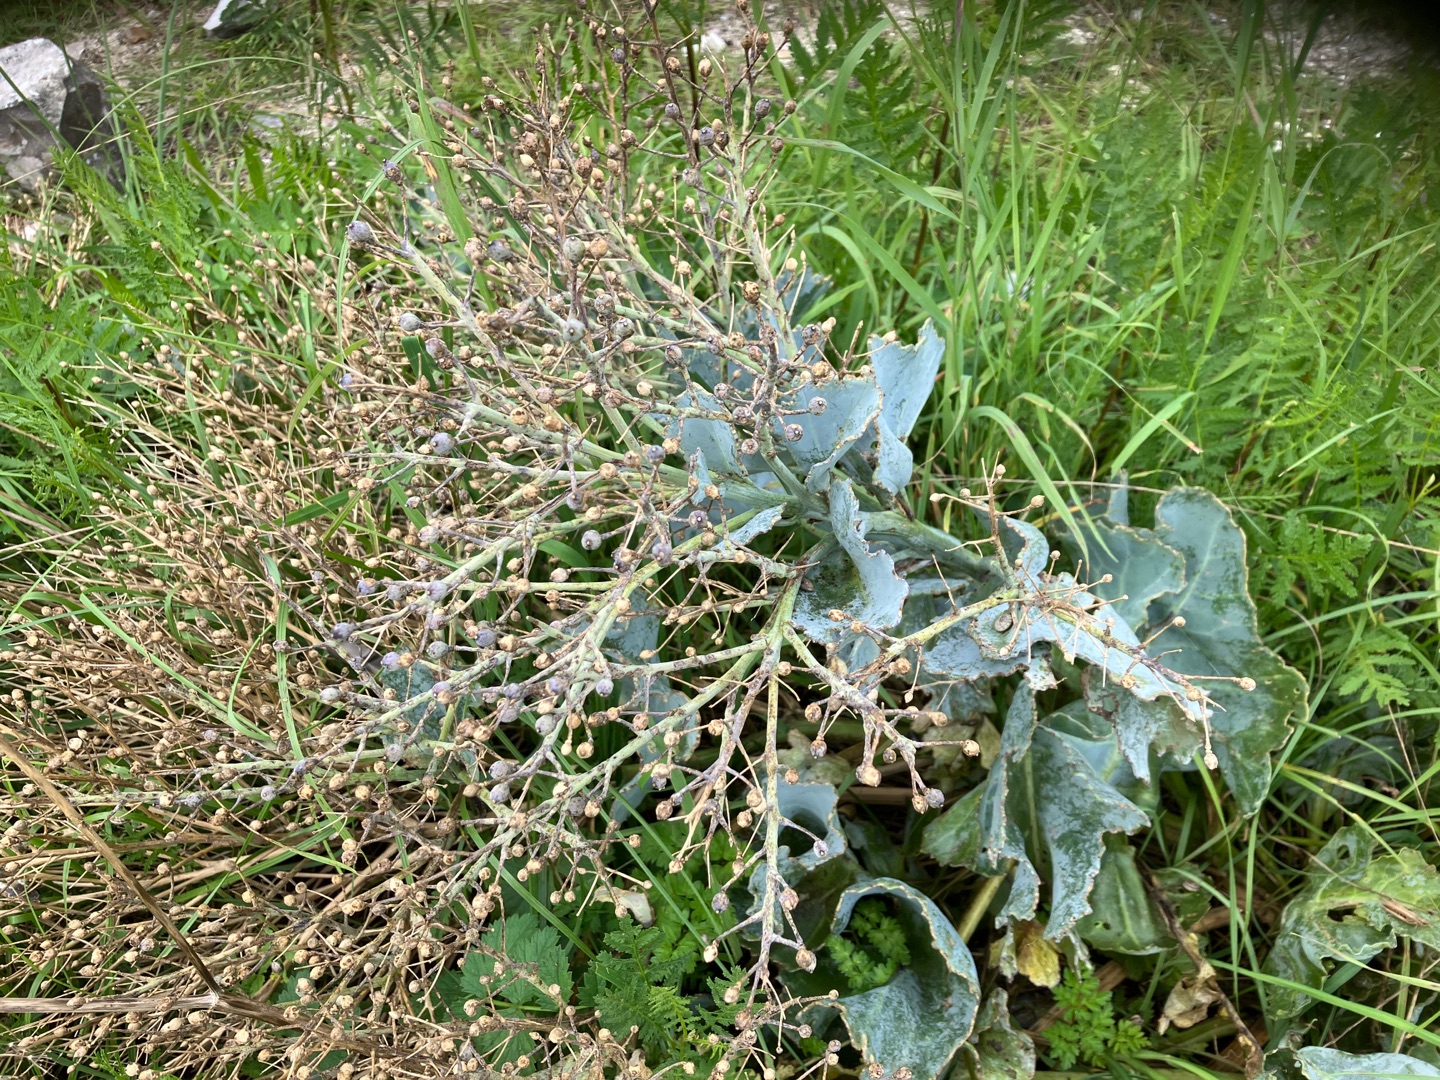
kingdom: Plantae
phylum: Tracheophyta
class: Magnoliopsida
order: Brassicales
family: Brassicaceae
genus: Crambe
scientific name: Crambe maritima
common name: Strandkål
